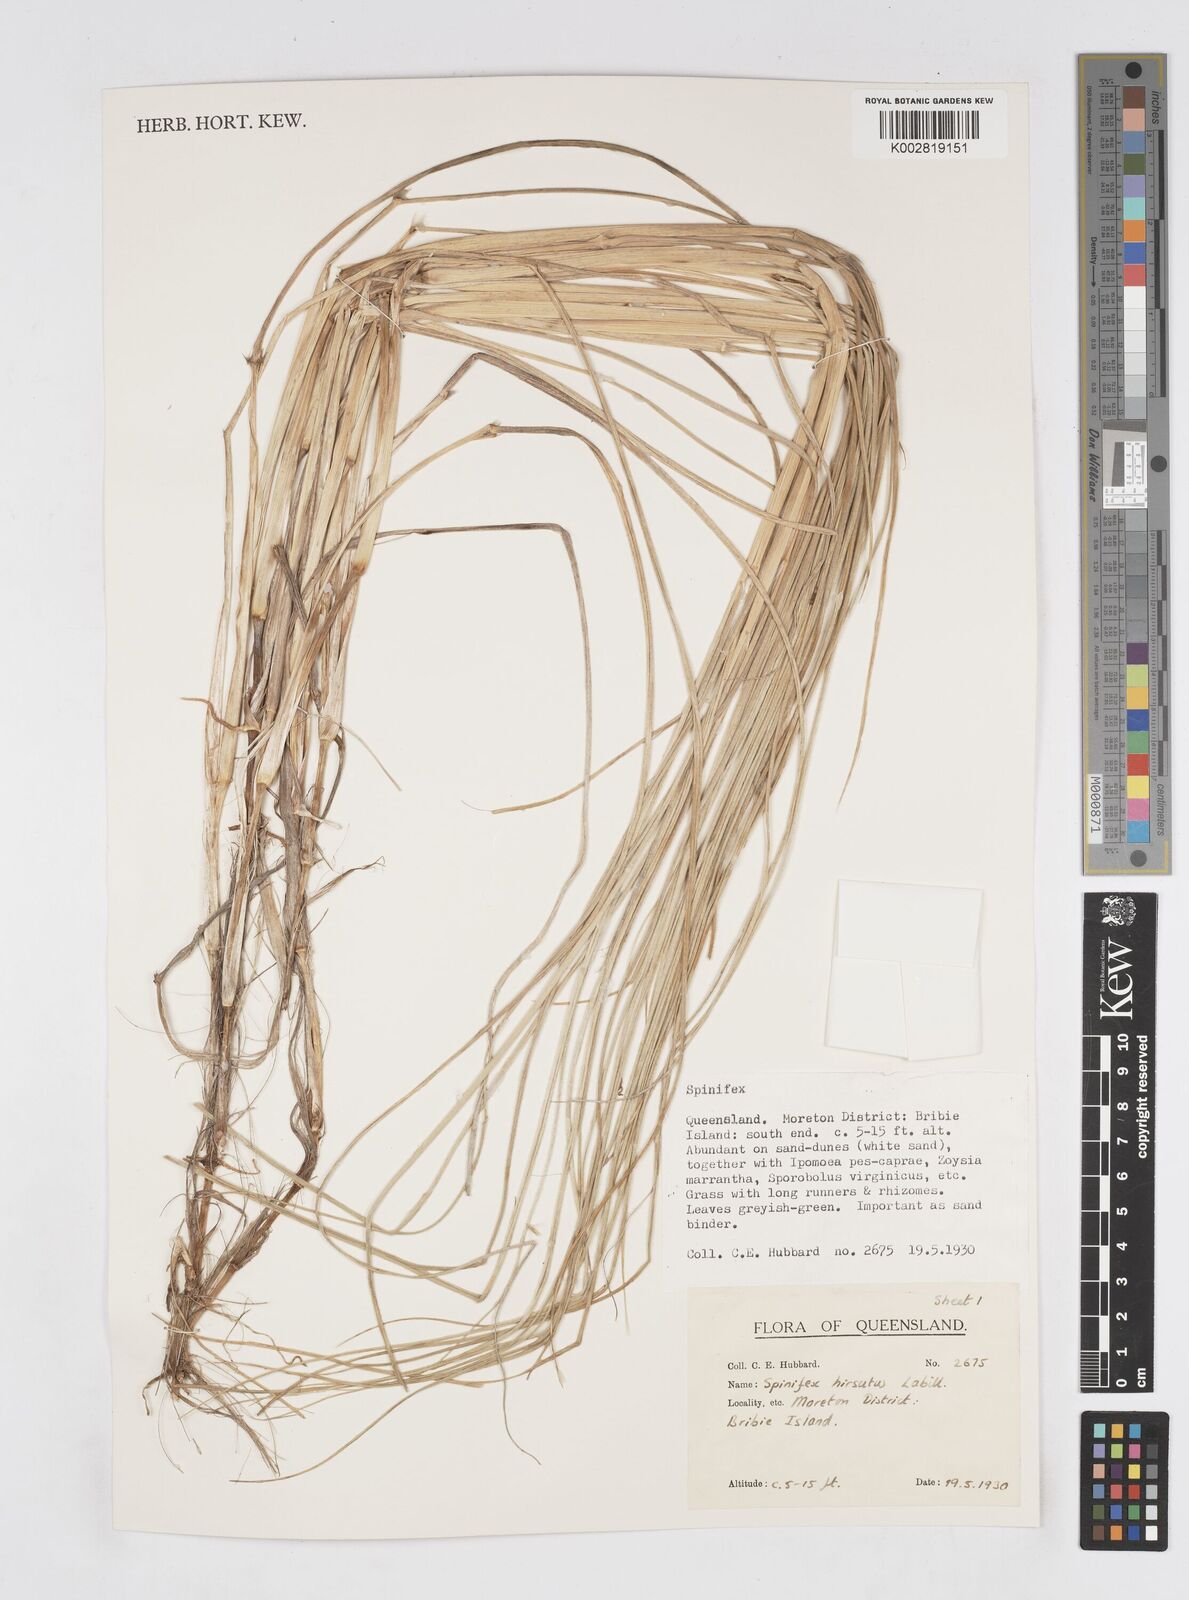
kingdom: Plantae
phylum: Tracheophyta
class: Liliopsida
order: Poales
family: Poaceae
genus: Spinifex
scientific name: Spinifex hirsutus
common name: Hairy spinifex
